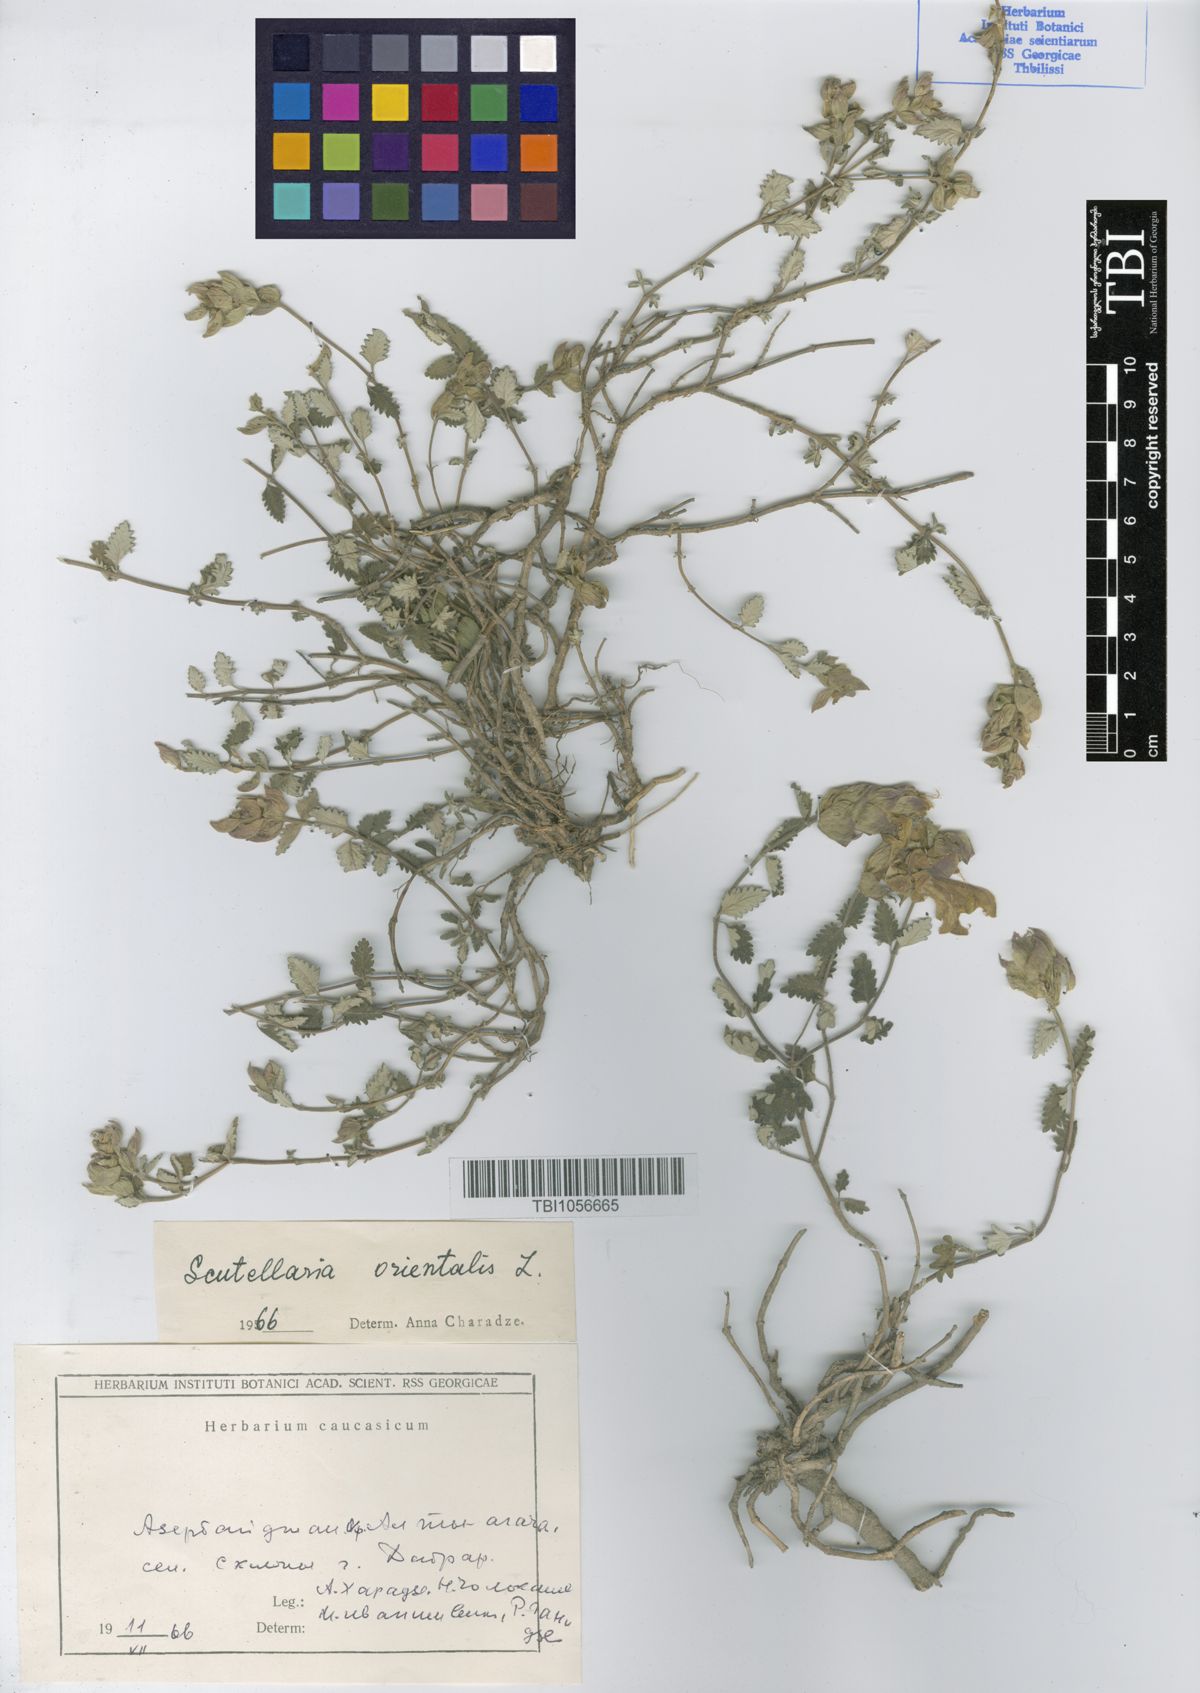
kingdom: Plantae
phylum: Tracheophyta
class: Magnoliopsida
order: Lamiales
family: Lamiaceae
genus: Scutellaria
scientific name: Scutellaria orientalis
